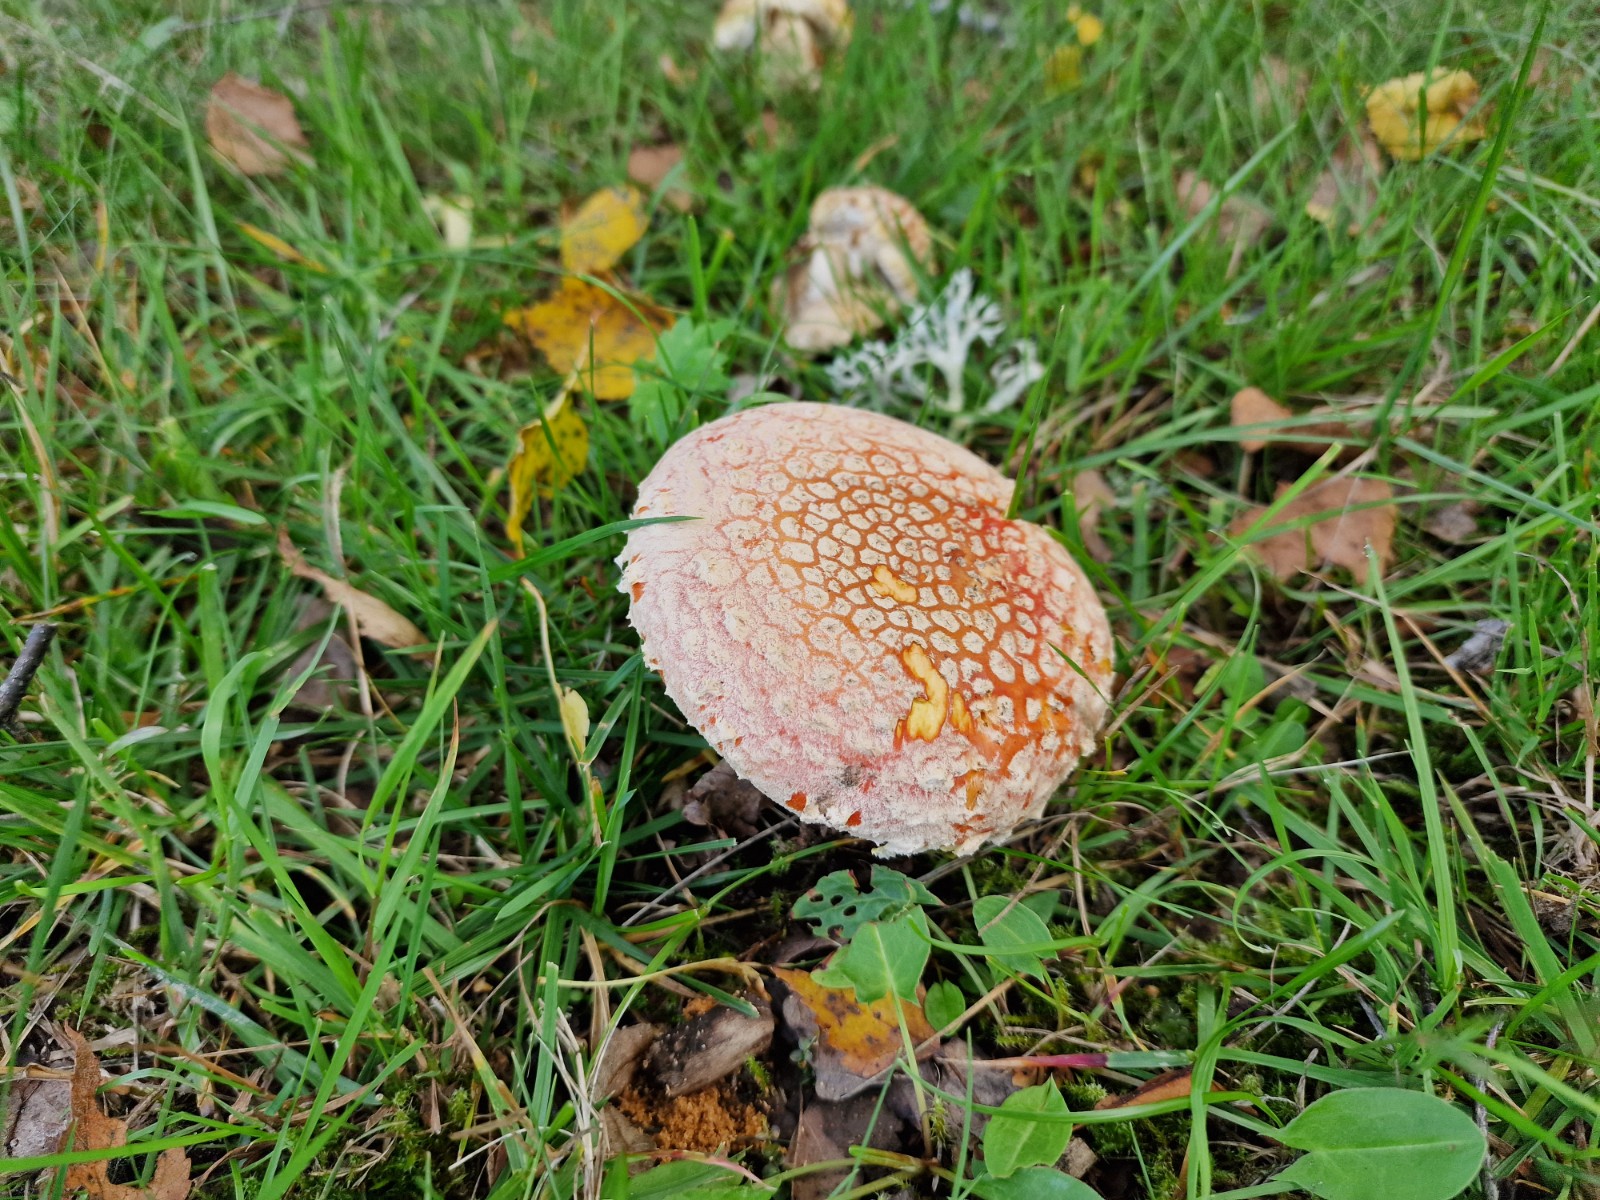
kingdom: Fungi
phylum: Basidiomycota
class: Agaricomycetes
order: Agaricales
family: Amanitaceae
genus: Amanita
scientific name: Amanita muscaria
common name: rød fluesvamp
